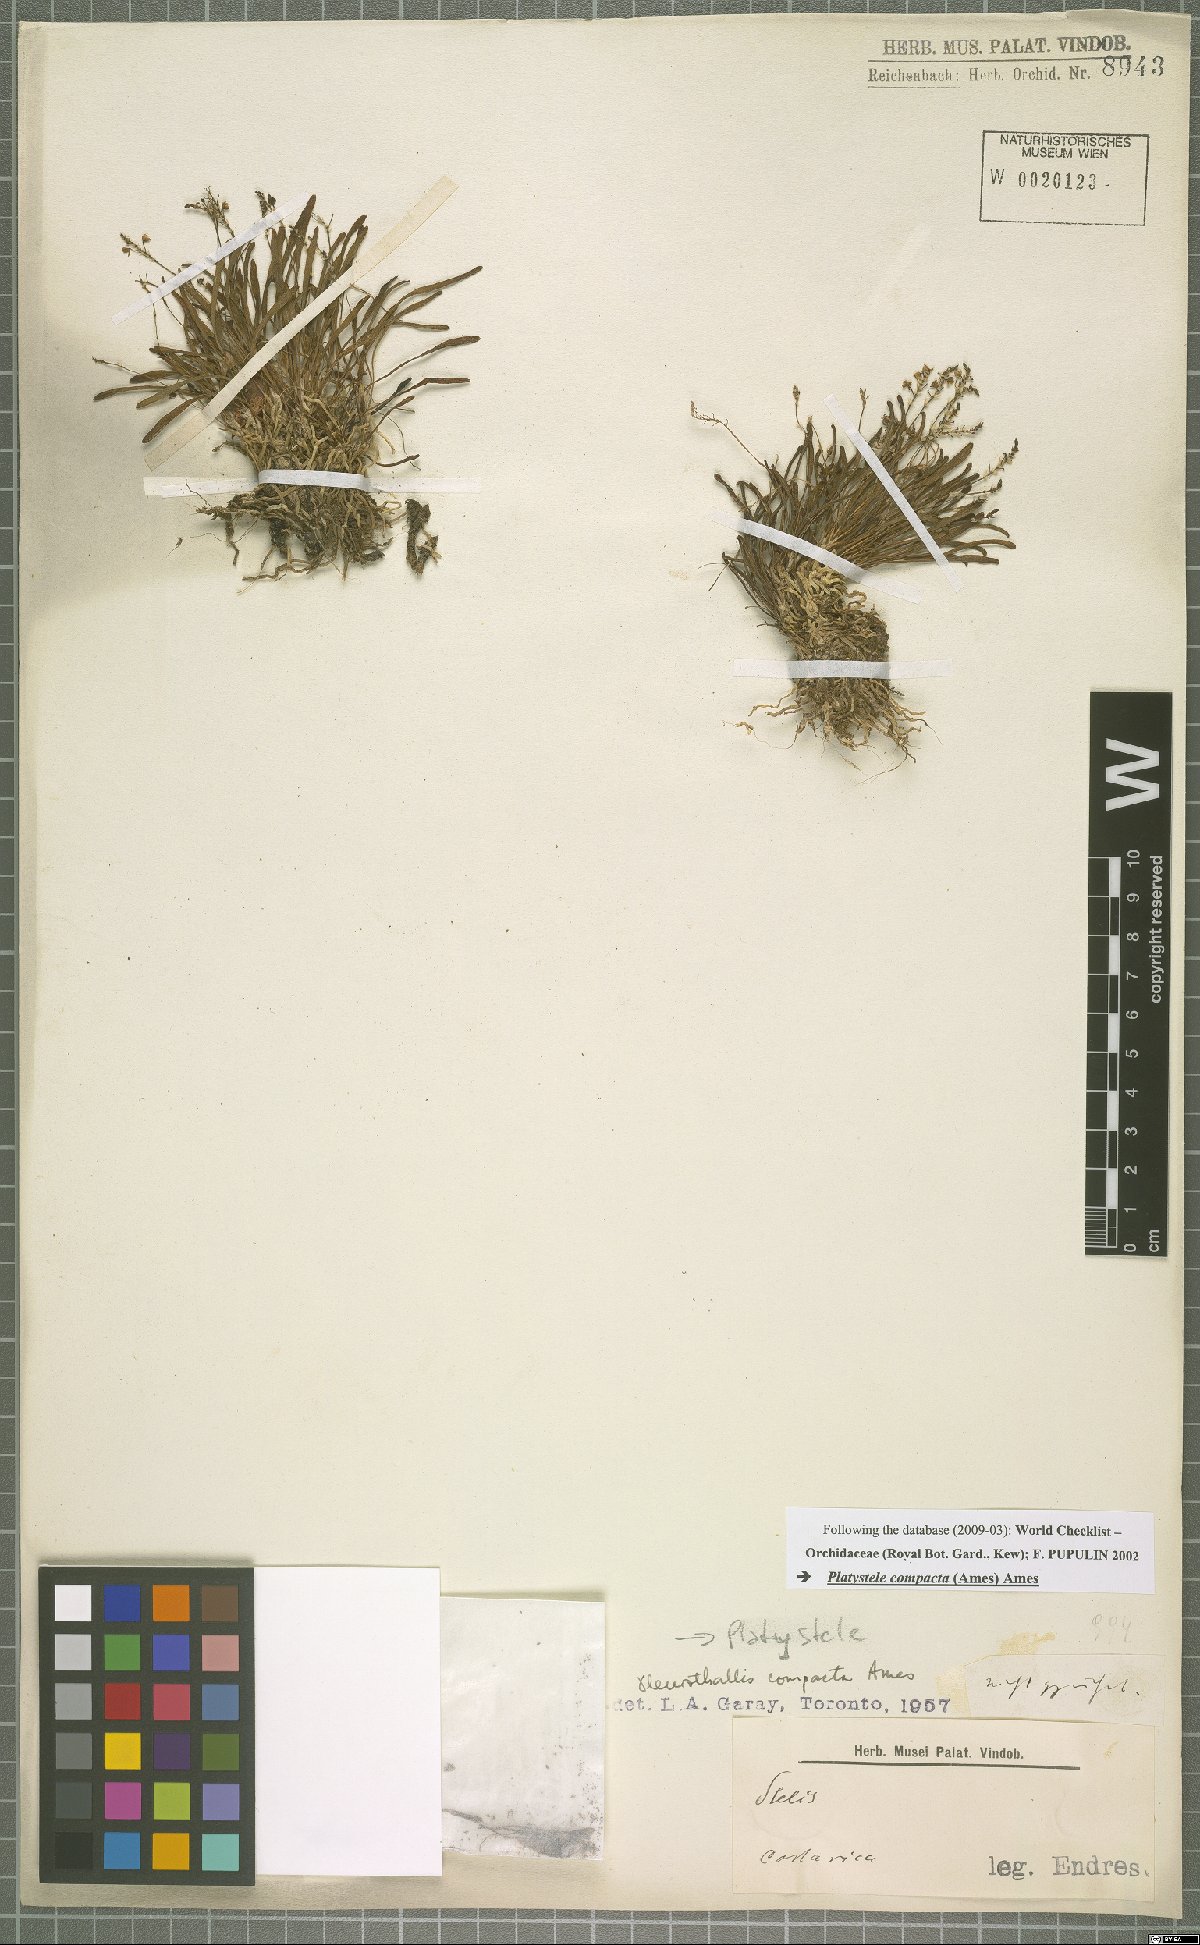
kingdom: Plantae
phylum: Tracheophyta
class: Liliopsida
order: Asparagales
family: Orchidaceae
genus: Platystele
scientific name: Platystele compacta
